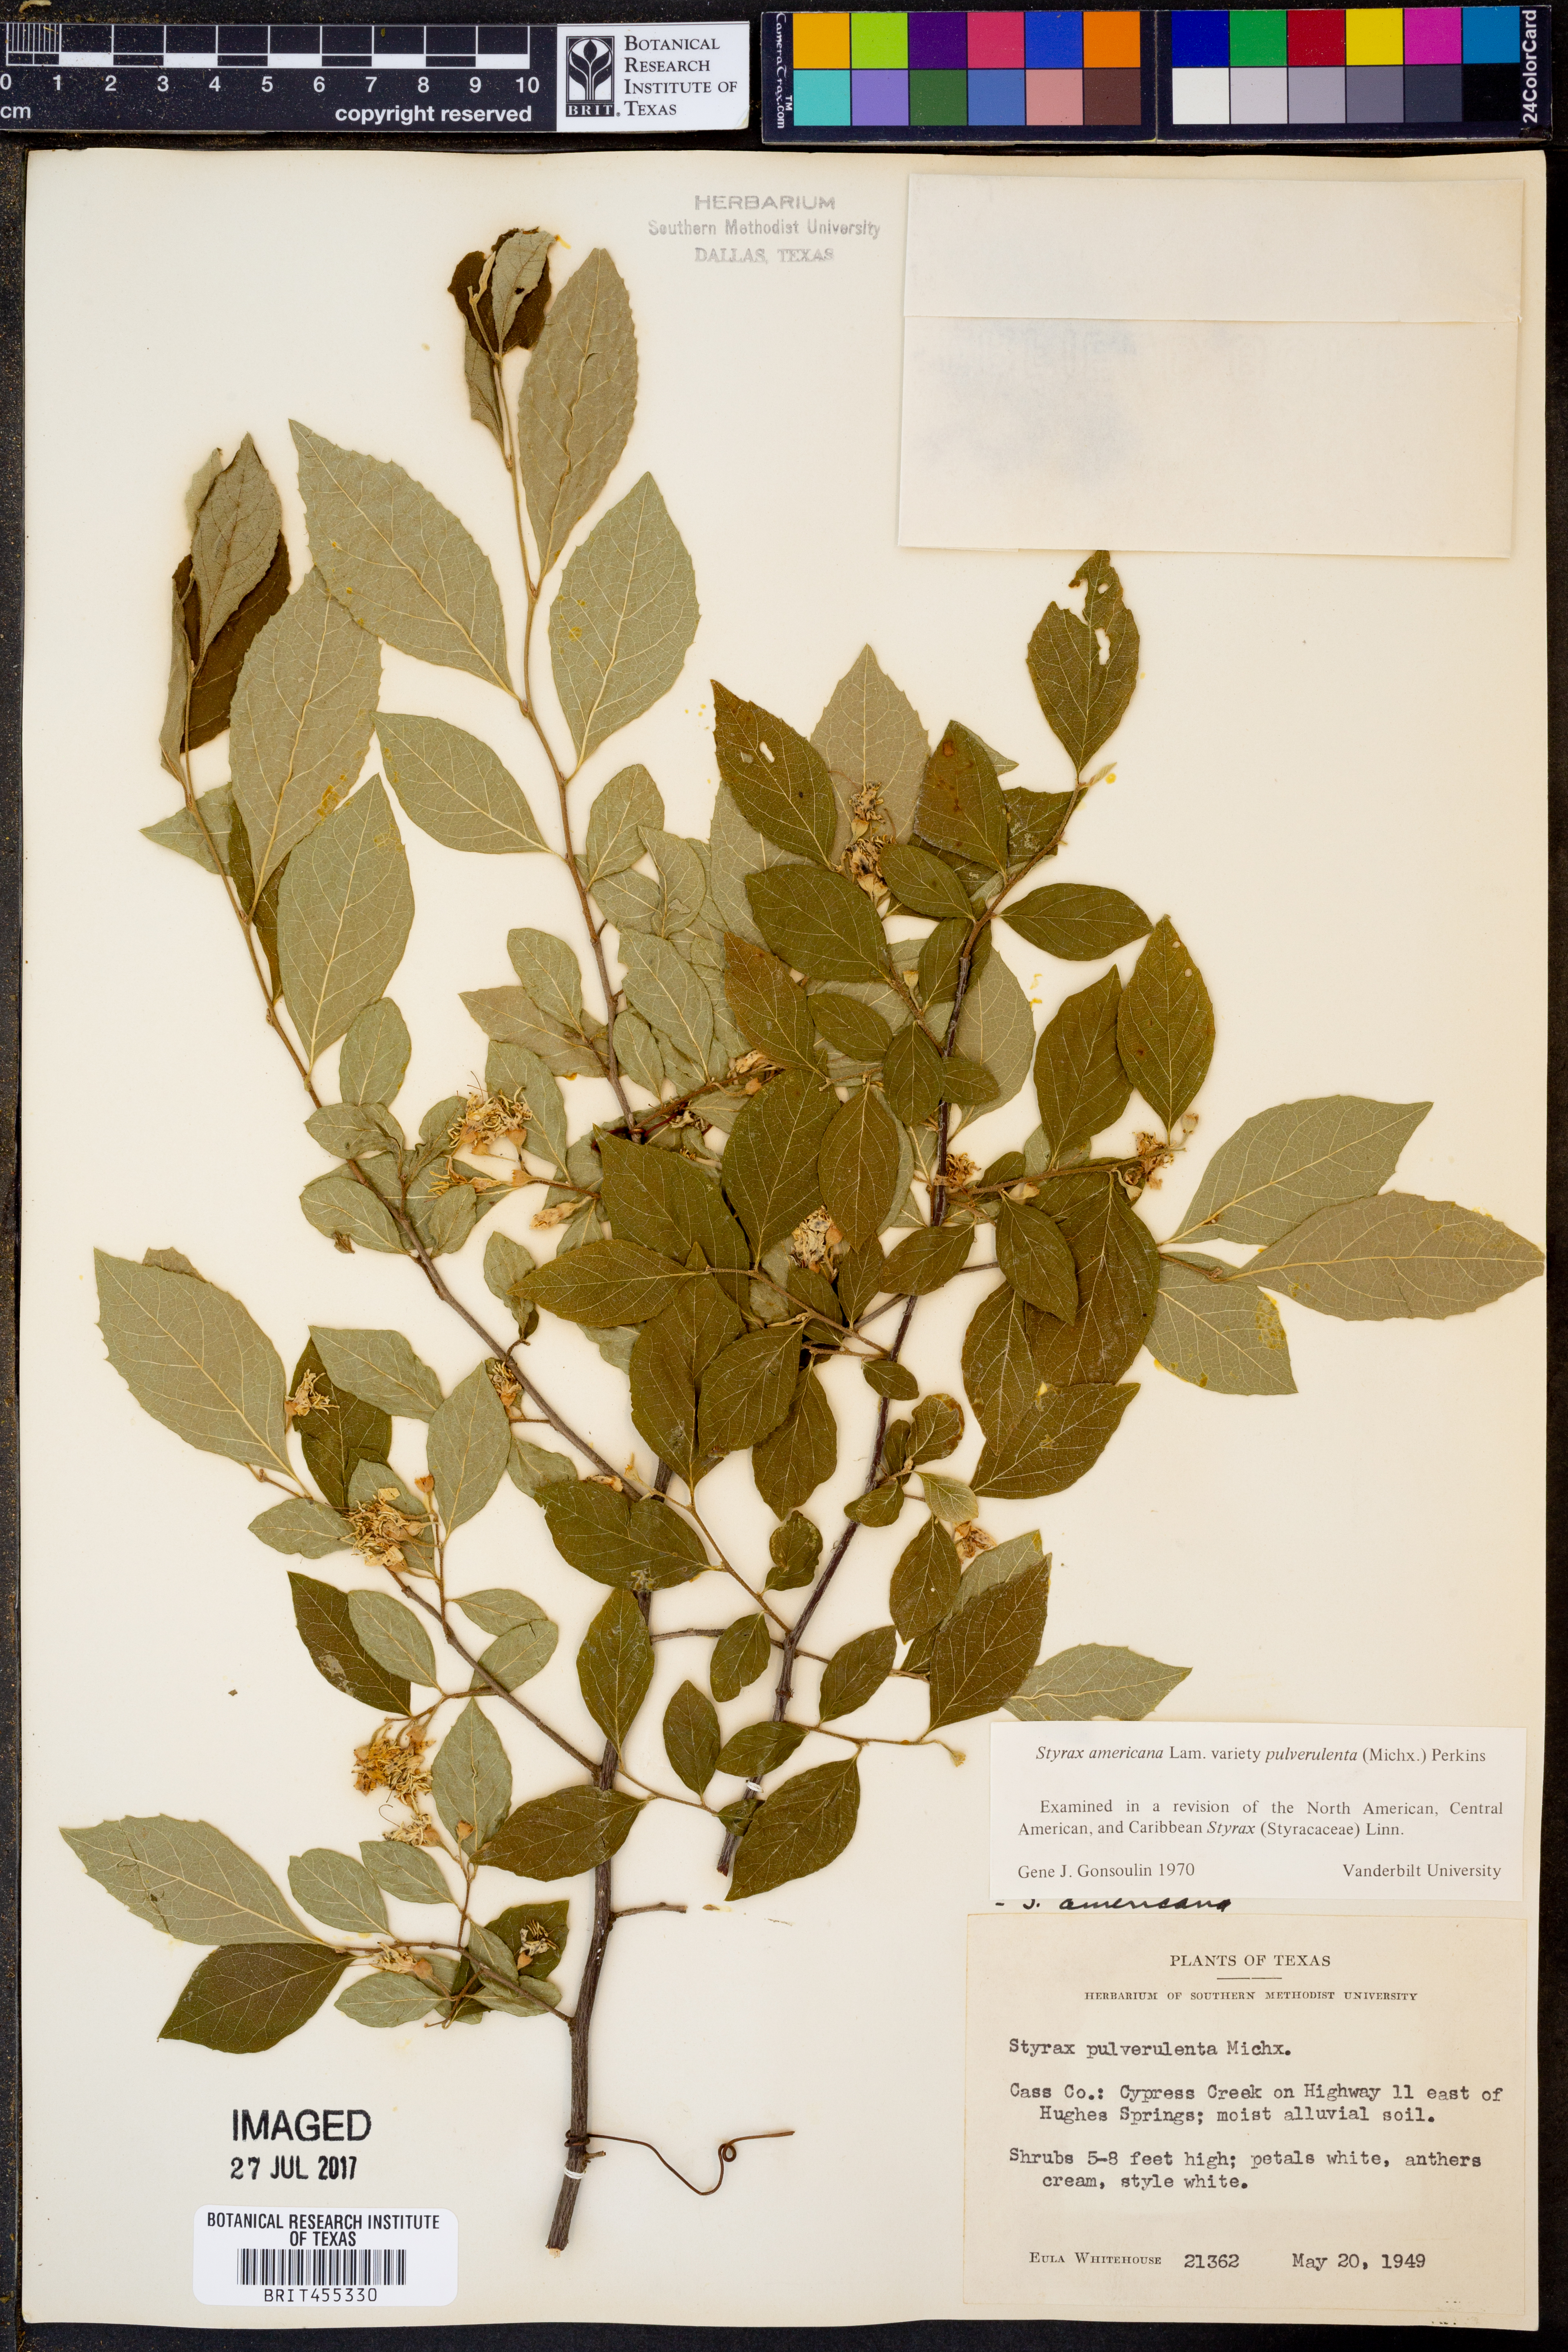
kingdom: Plantae
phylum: Tracheophyta
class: Magnoliopsida
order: Ericales
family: Styracaceae
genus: Styrax
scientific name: Styrax americanus
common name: American snowbell
